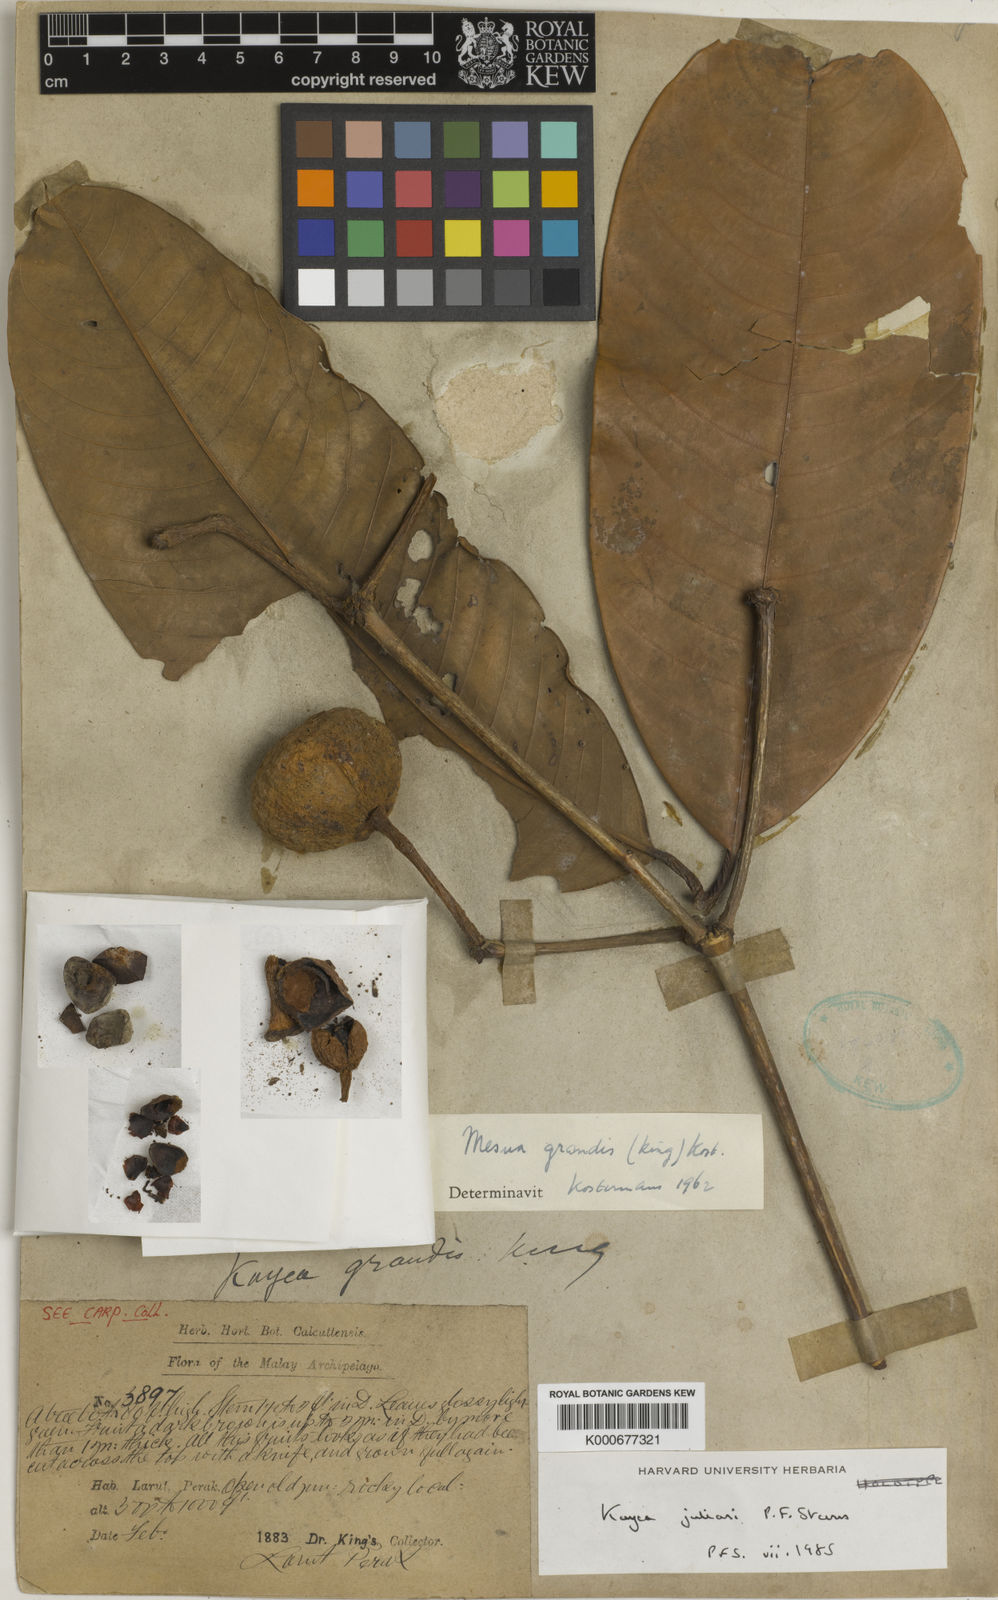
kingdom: Plantae
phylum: Tracheophyta
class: Magnoliopsida
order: Malpighiales
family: Calophyllaceae
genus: Kayea
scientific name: Kayea
